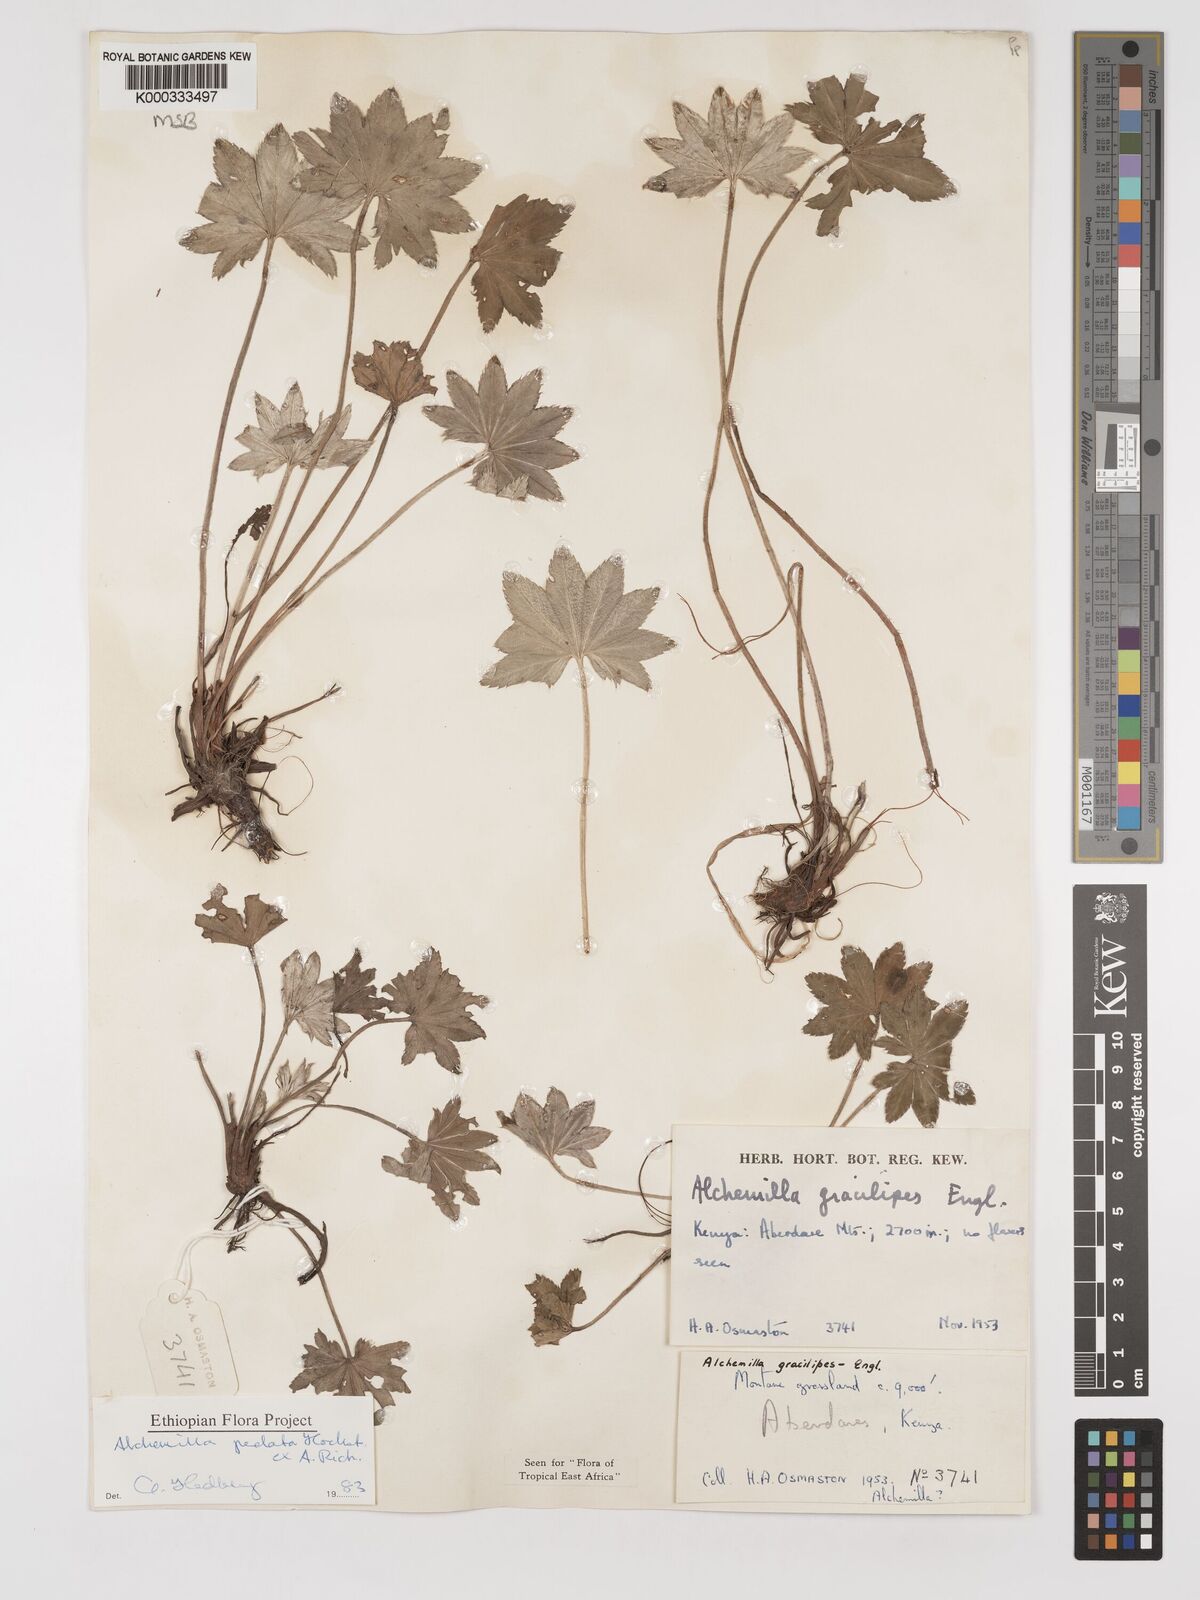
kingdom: Plantae
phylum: Tracheophyta
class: Magnoliopsida
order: Rosales
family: Rosaceae
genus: Alchemilla
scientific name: Alchemilla pedata
